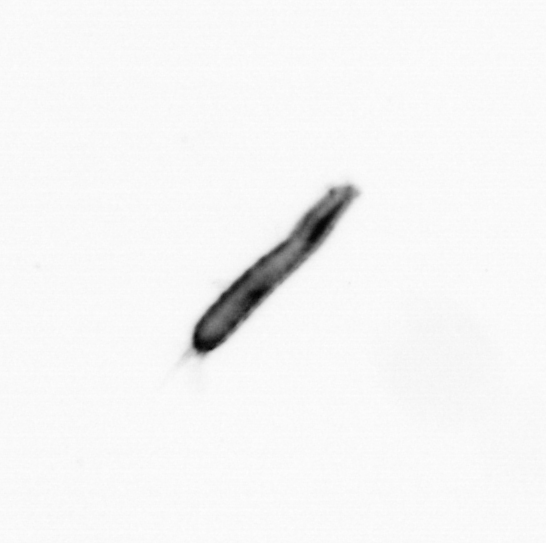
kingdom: Animalia
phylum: Annelida
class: Polychaeta
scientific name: Polychaeta
